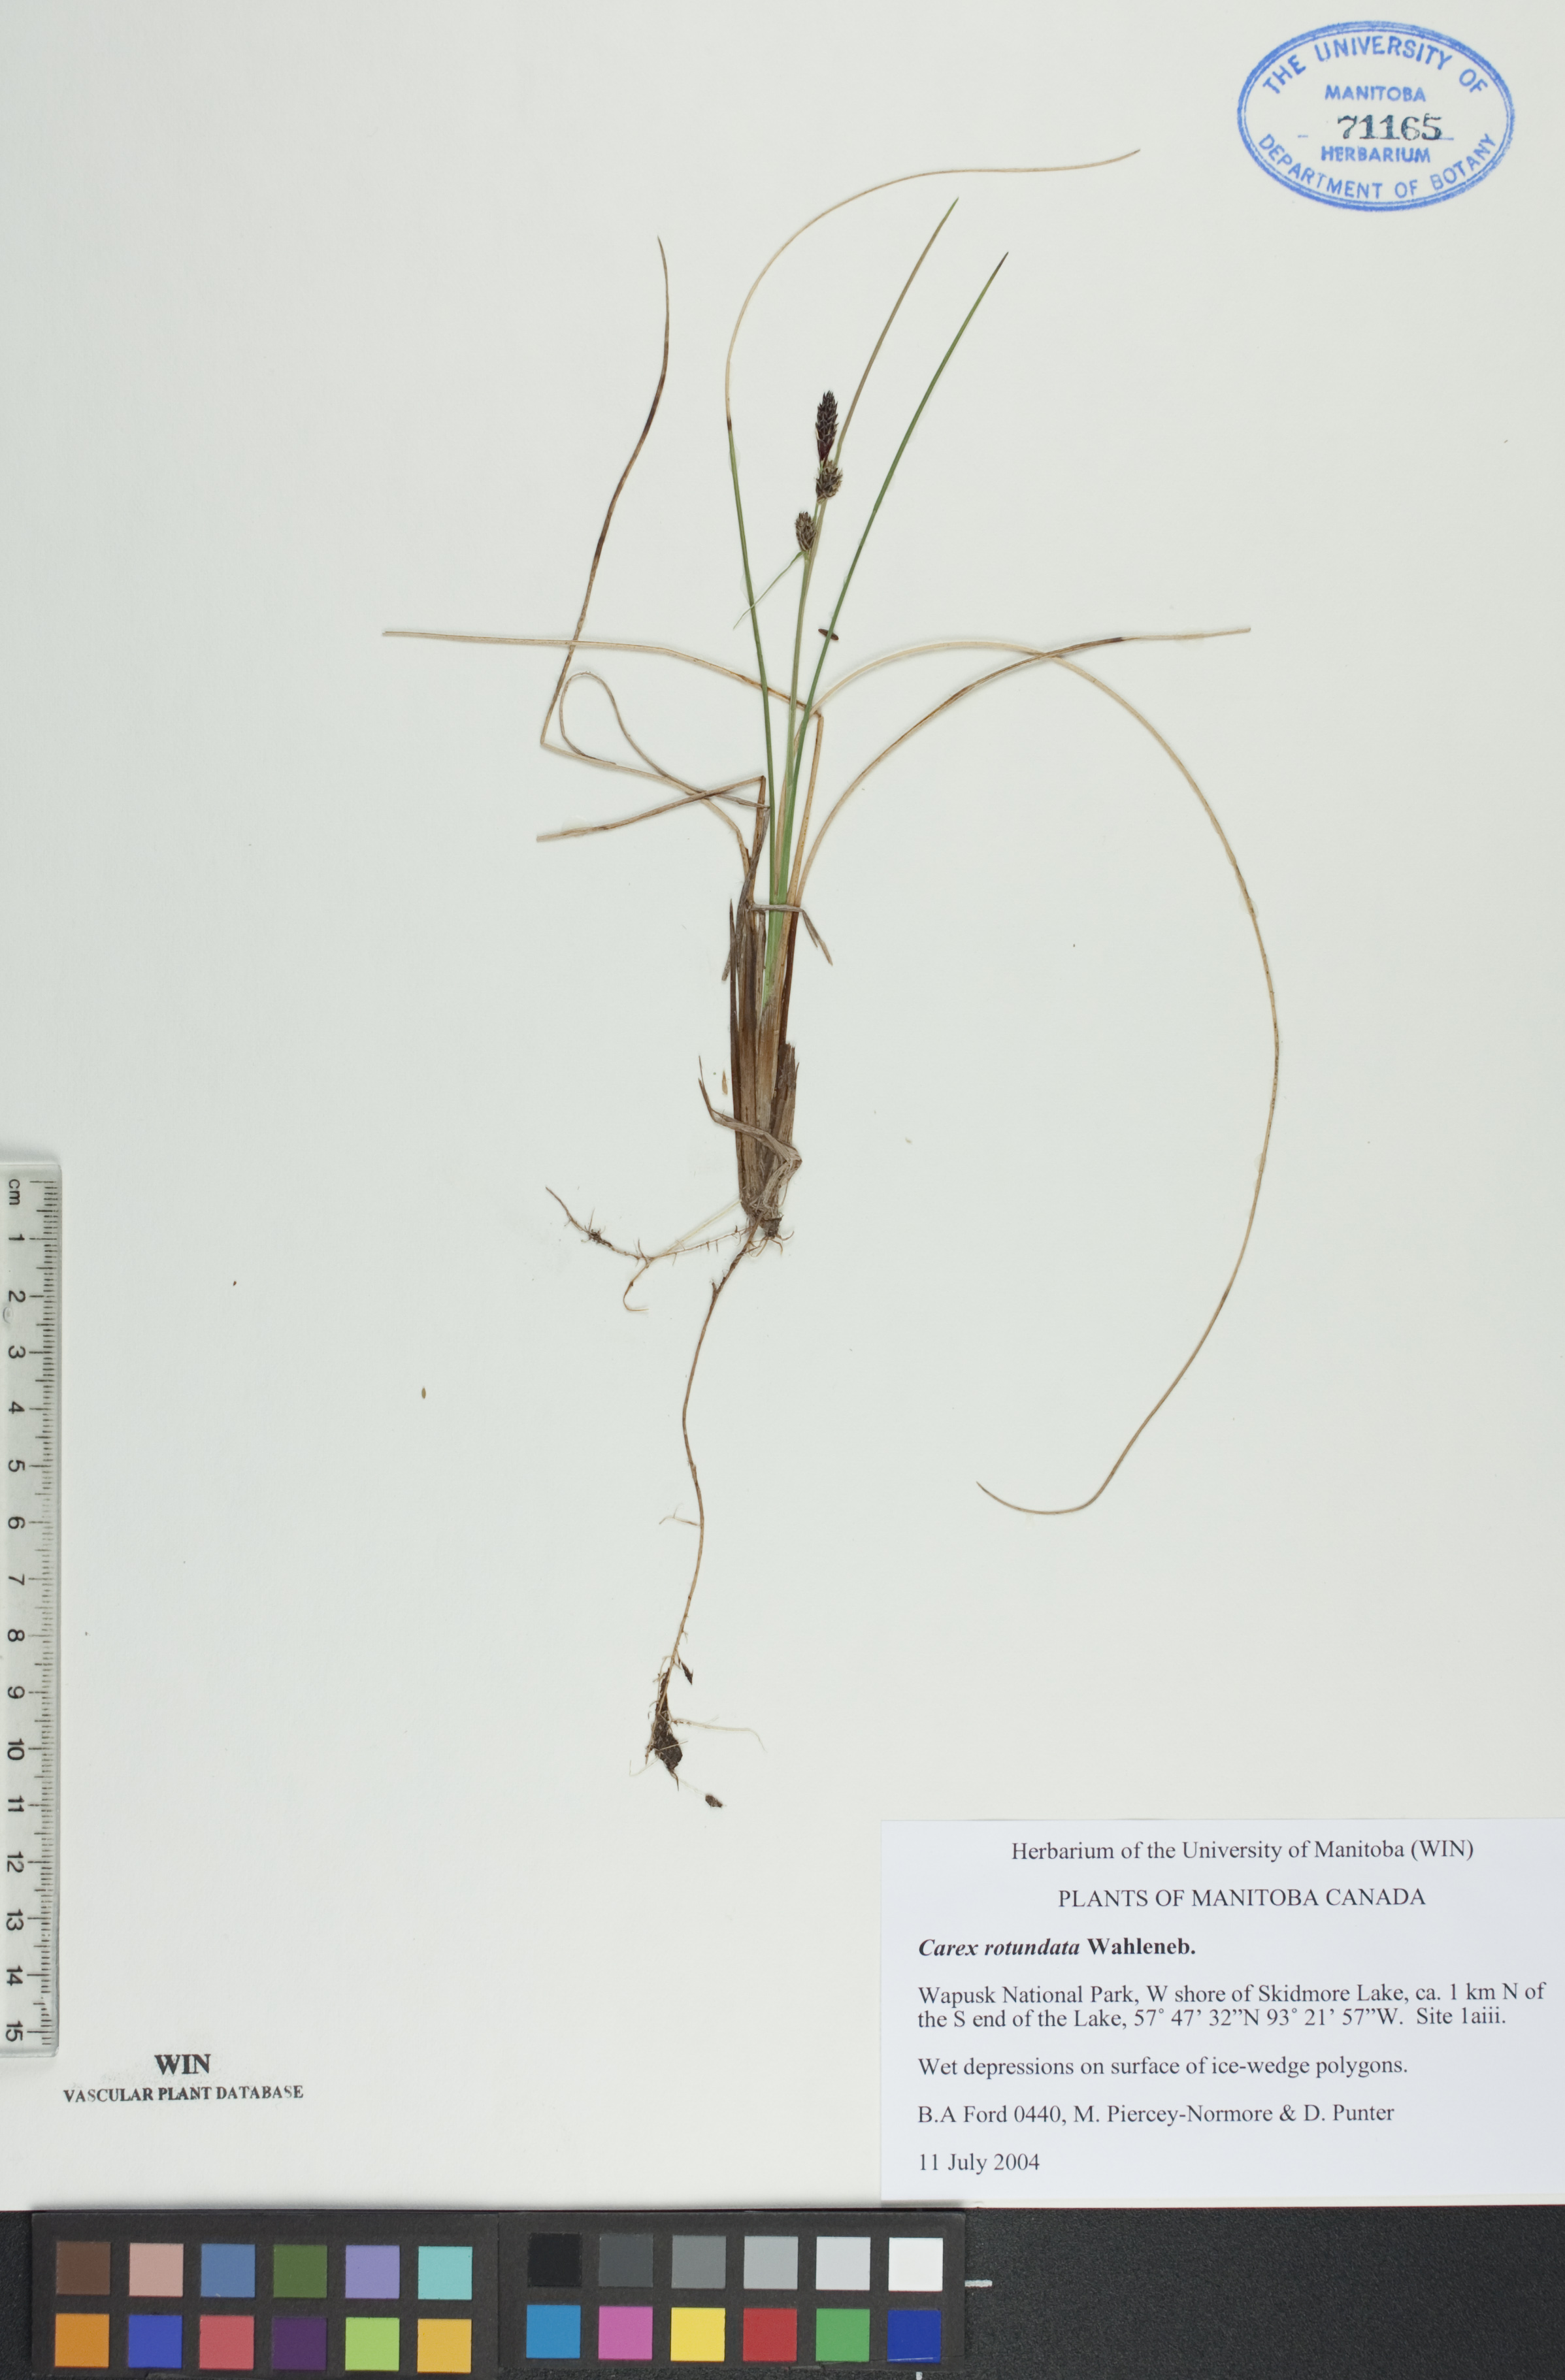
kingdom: Plantae
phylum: Tracheophyta
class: Liliopsida
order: Poales
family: Cyperaceae
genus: Carex
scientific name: Carex rotundata
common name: Round-fruited sedge
